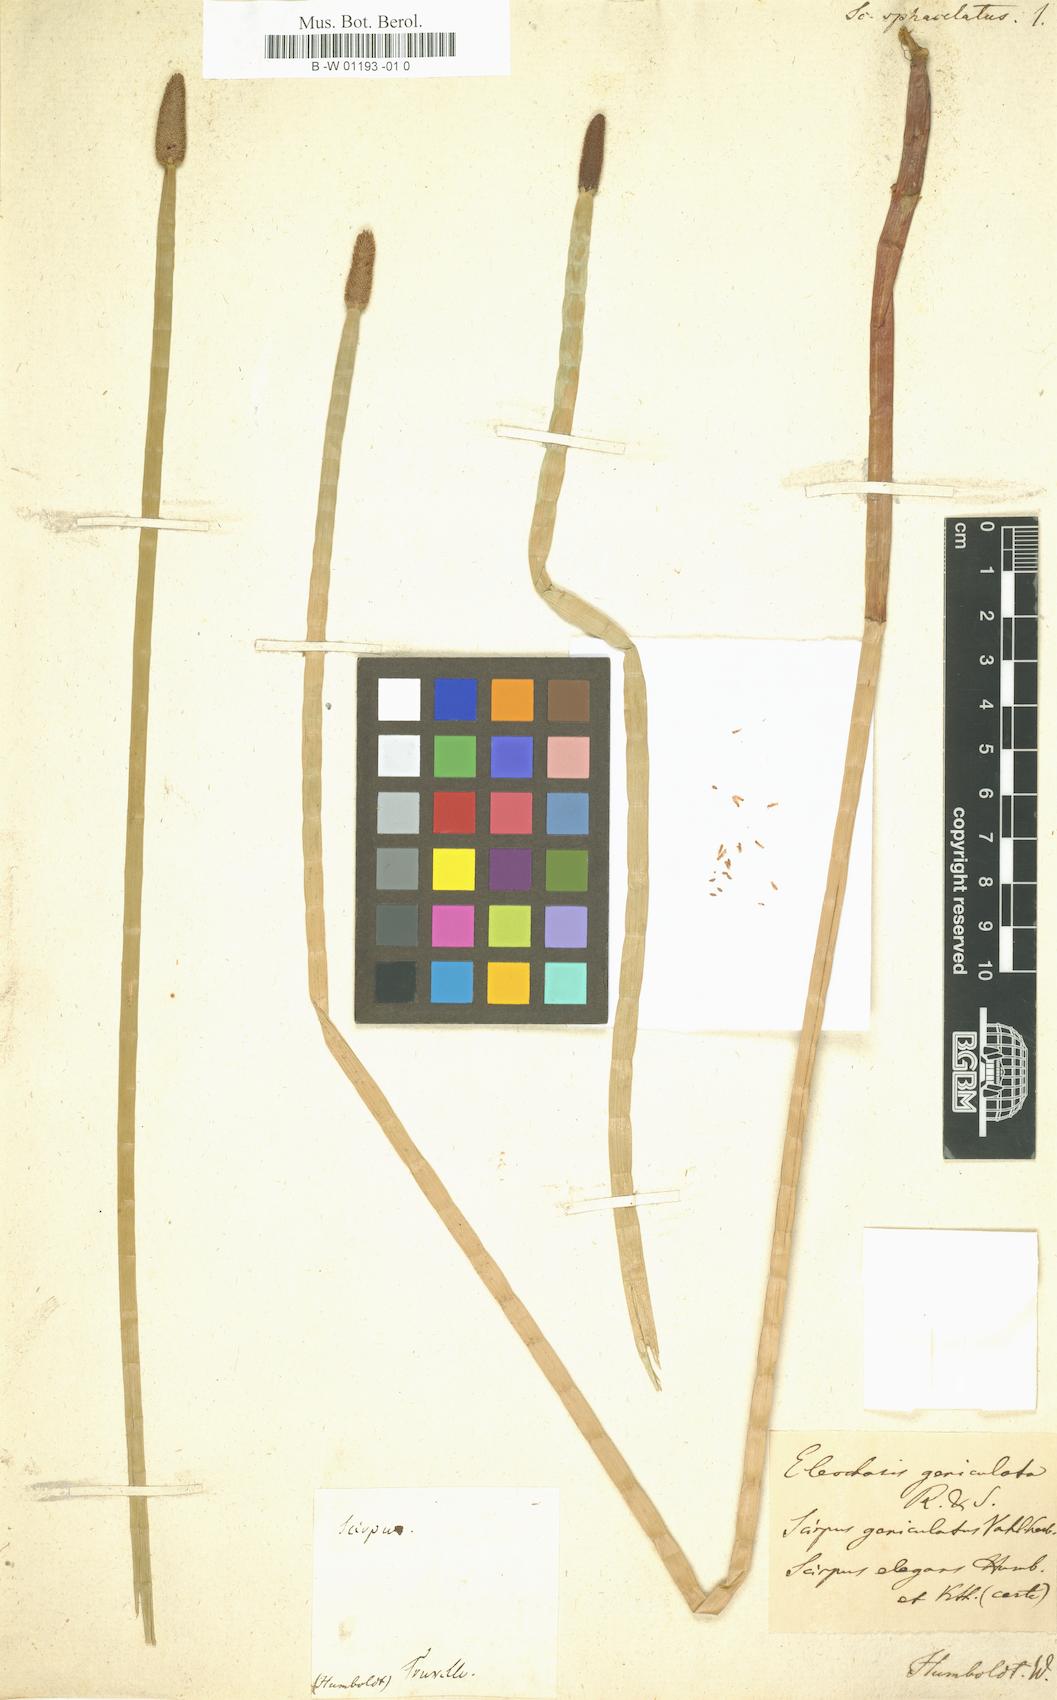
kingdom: Plantae
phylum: Tracheophyta
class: Liliopsida
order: Poales
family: Cyperaceae
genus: Scirpus
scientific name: Scirpus sphacelatus
